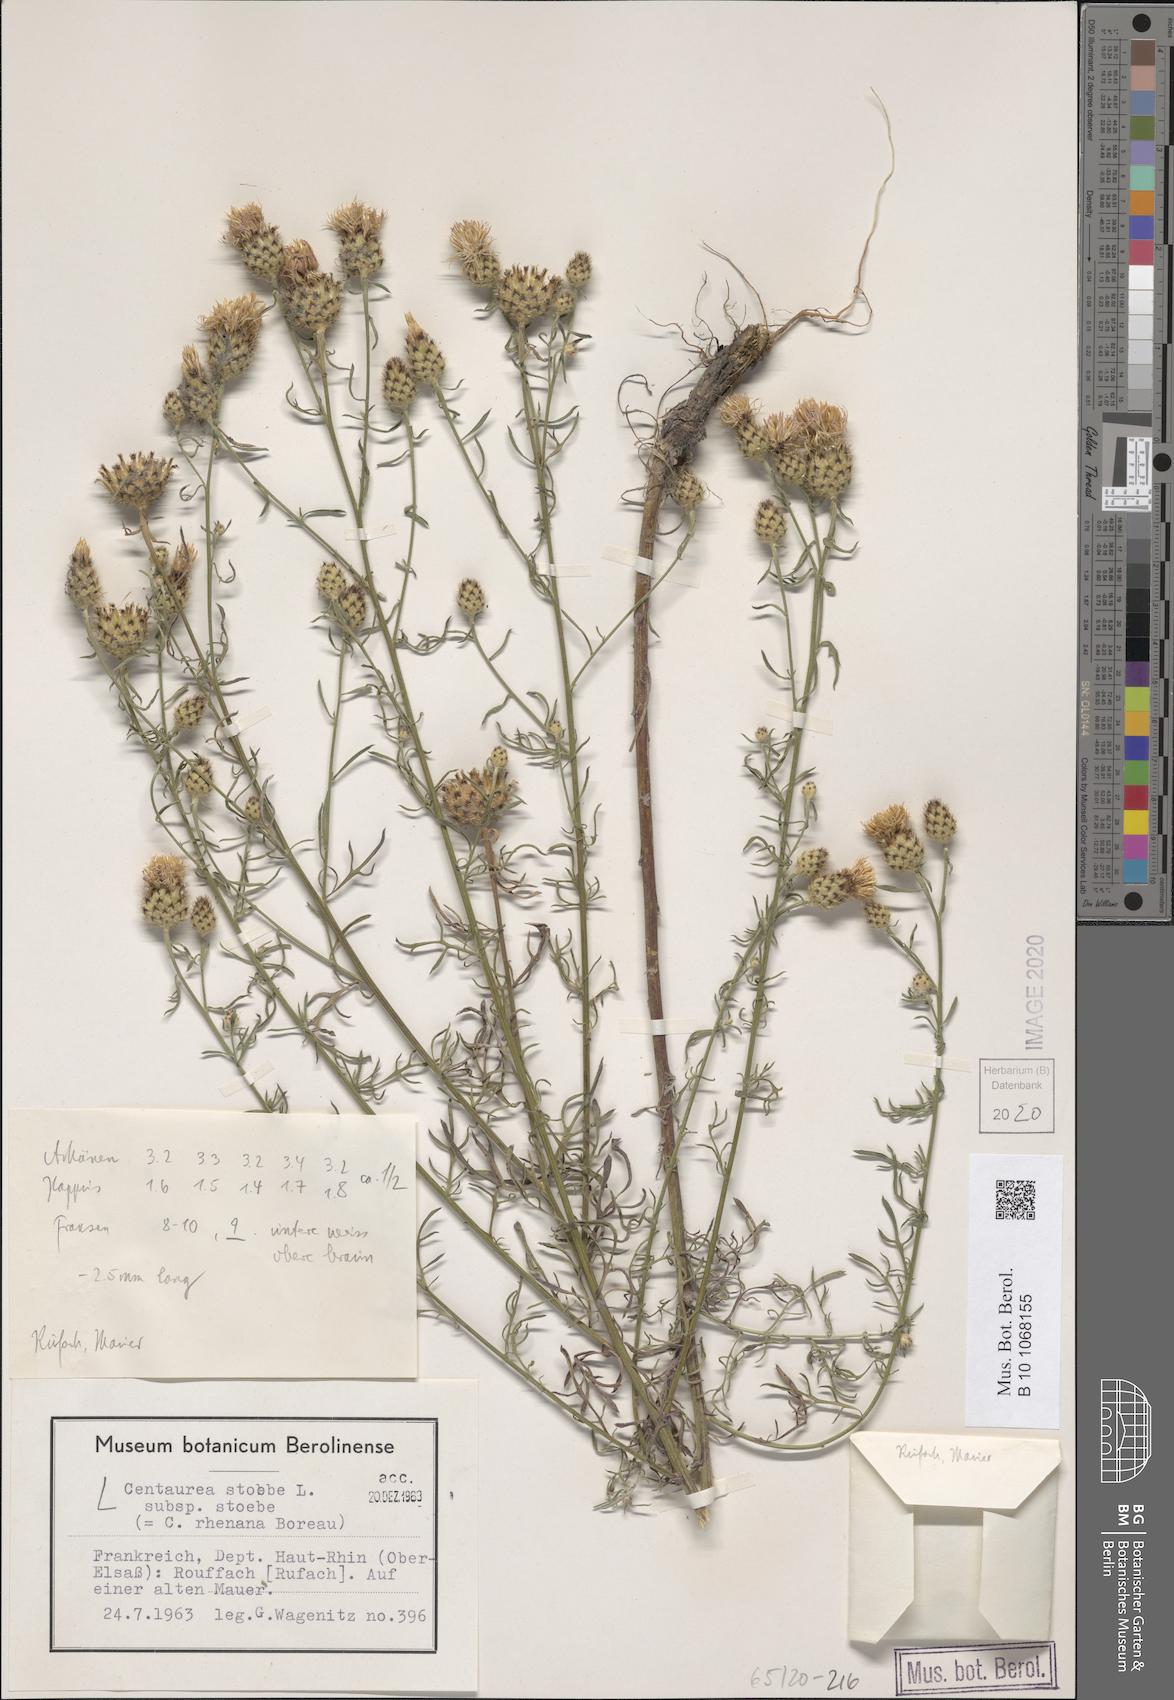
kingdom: Plantae
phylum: Tracheophyta
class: Magnoliopsida
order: Asterales
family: Asteraceae
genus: Centaurea
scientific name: Centaurea stoebe
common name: Spotted knapweed
